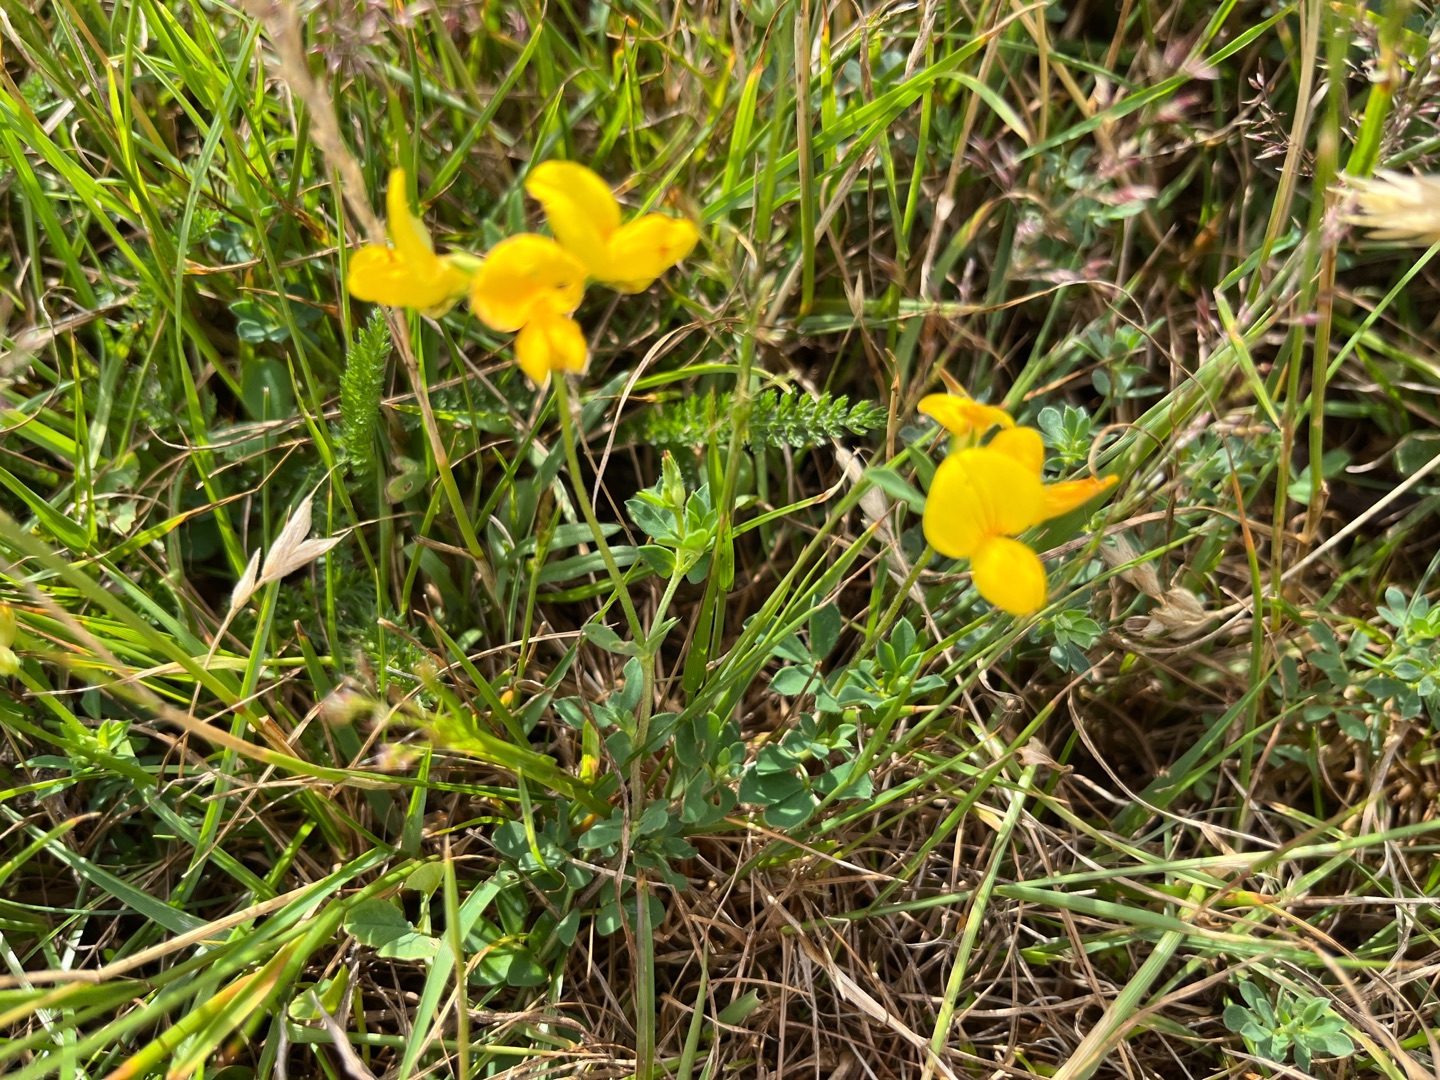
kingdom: Plantae
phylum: Tracheophyta
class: Magnoliopsida
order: Fabales
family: Fabaceae
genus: Lotus
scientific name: Lotus corniculatus
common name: Almindelig kællingetand
